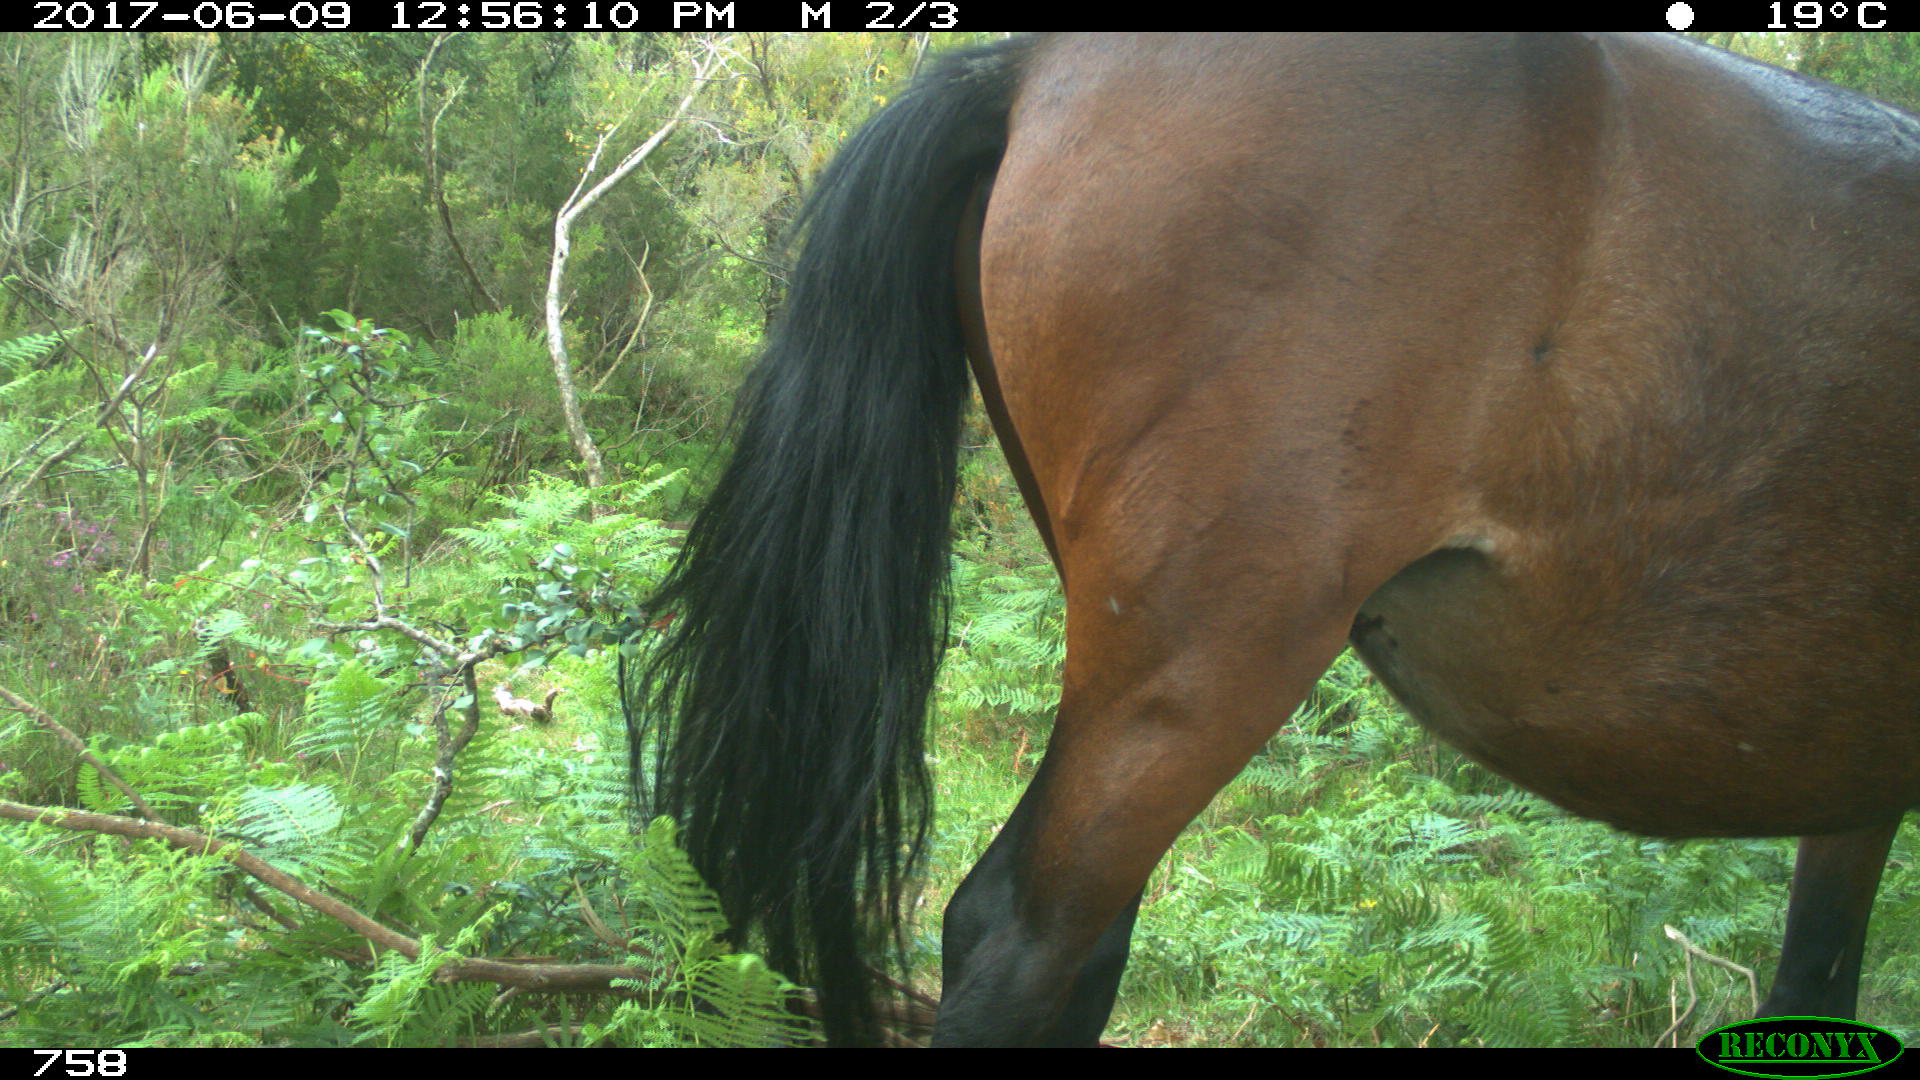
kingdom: Animalia
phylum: Chordata
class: Mammalia
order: Perissodactyla
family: Equidae
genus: Equus
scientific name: Equus caballus
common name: Horse
